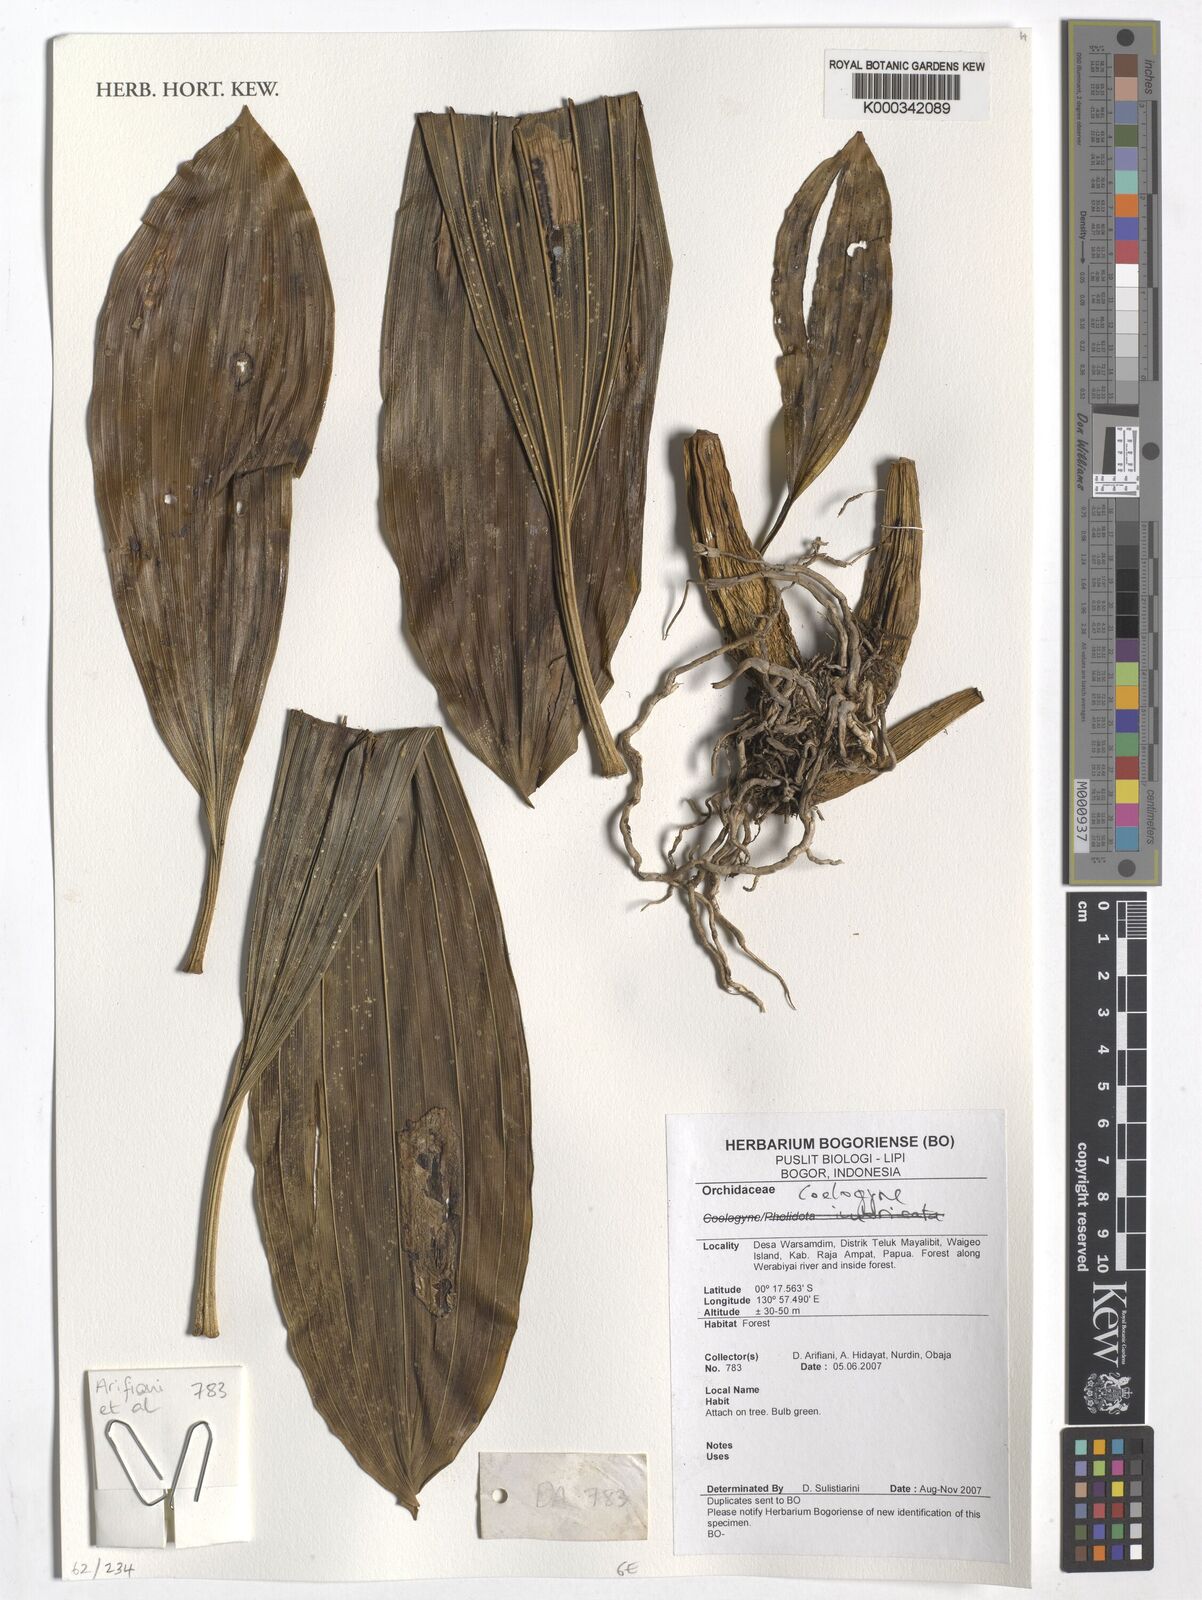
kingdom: Plantae
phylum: Tracheophyta
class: Liliopsida
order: Asparagales
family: Orchidaceae
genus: Coelogyne
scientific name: Coelogyne
